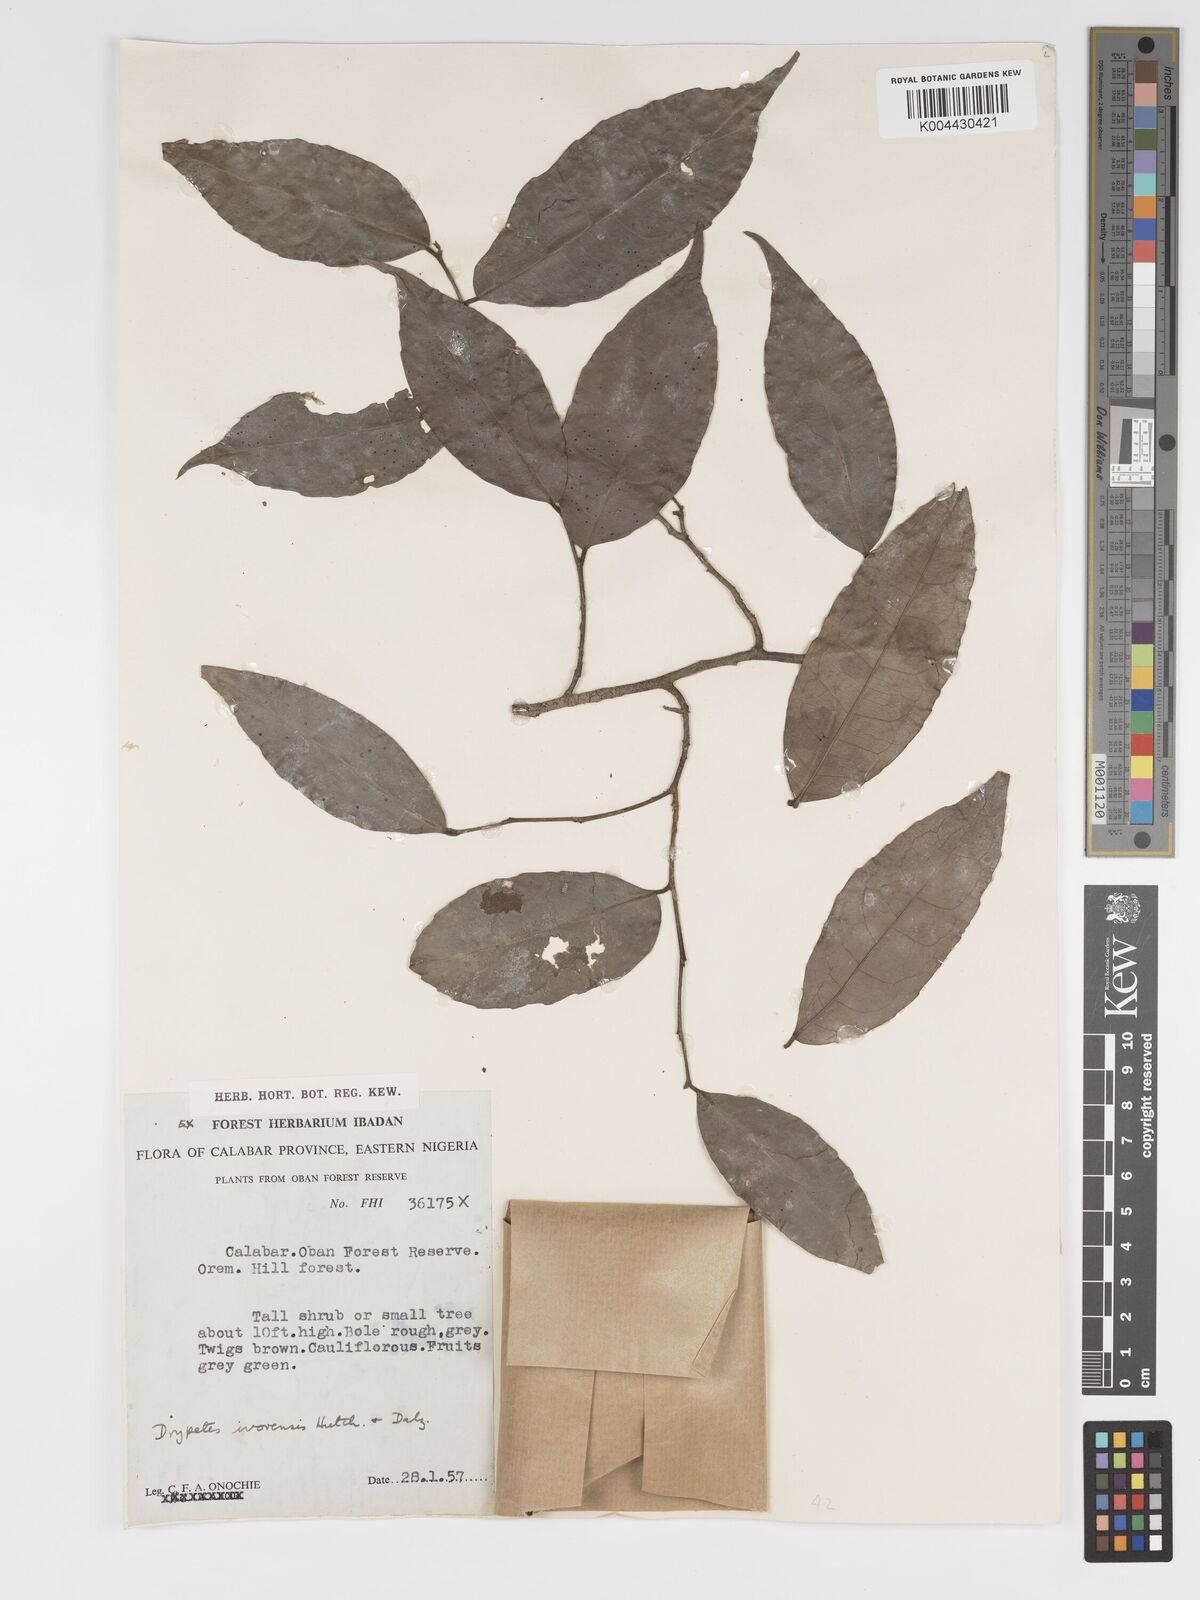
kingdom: Plantae
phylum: Tracheophyta
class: Magnoliopsida
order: Malpighiales
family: Putranjivaceae
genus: Drypetes
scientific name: Drypetes ivorensis
